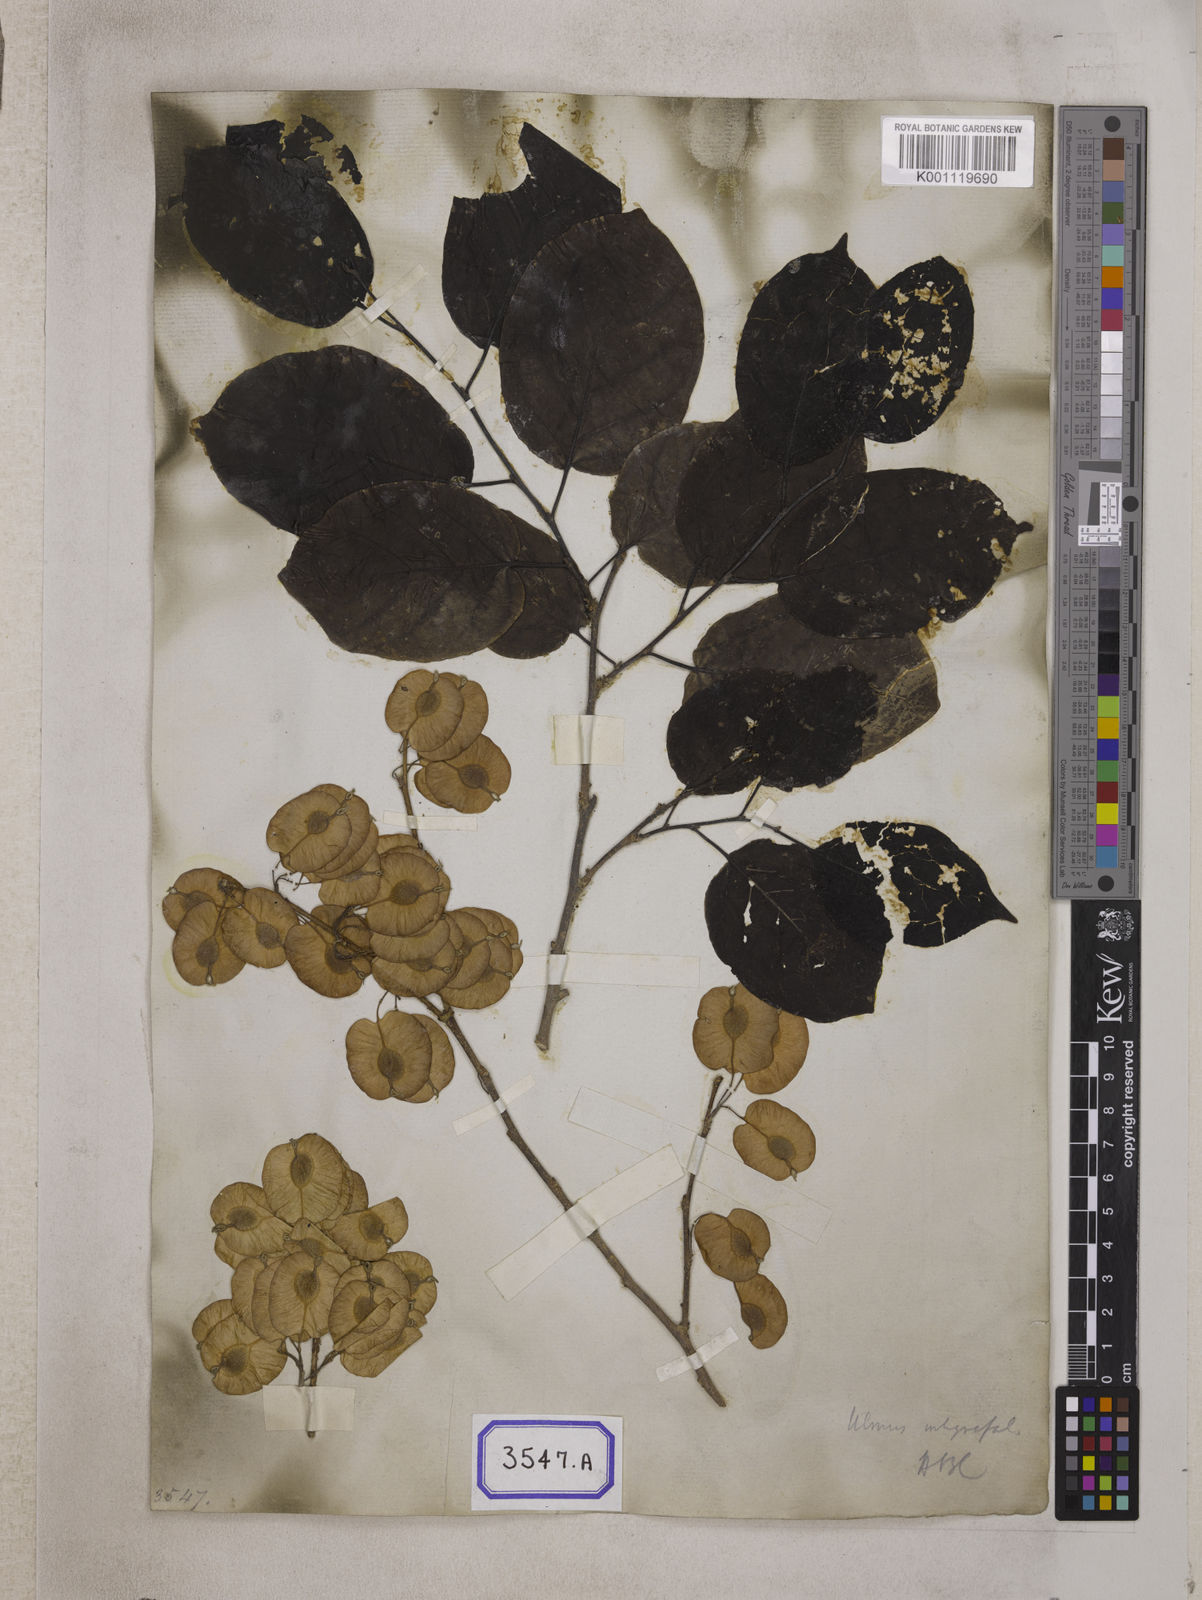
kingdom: Plantae
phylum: Tracheophyta
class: Magnoliopsida
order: Rosales
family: Ulmaceae
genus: Holoptelea
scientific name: Holoptelea integrifolia
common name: Indian-elm
